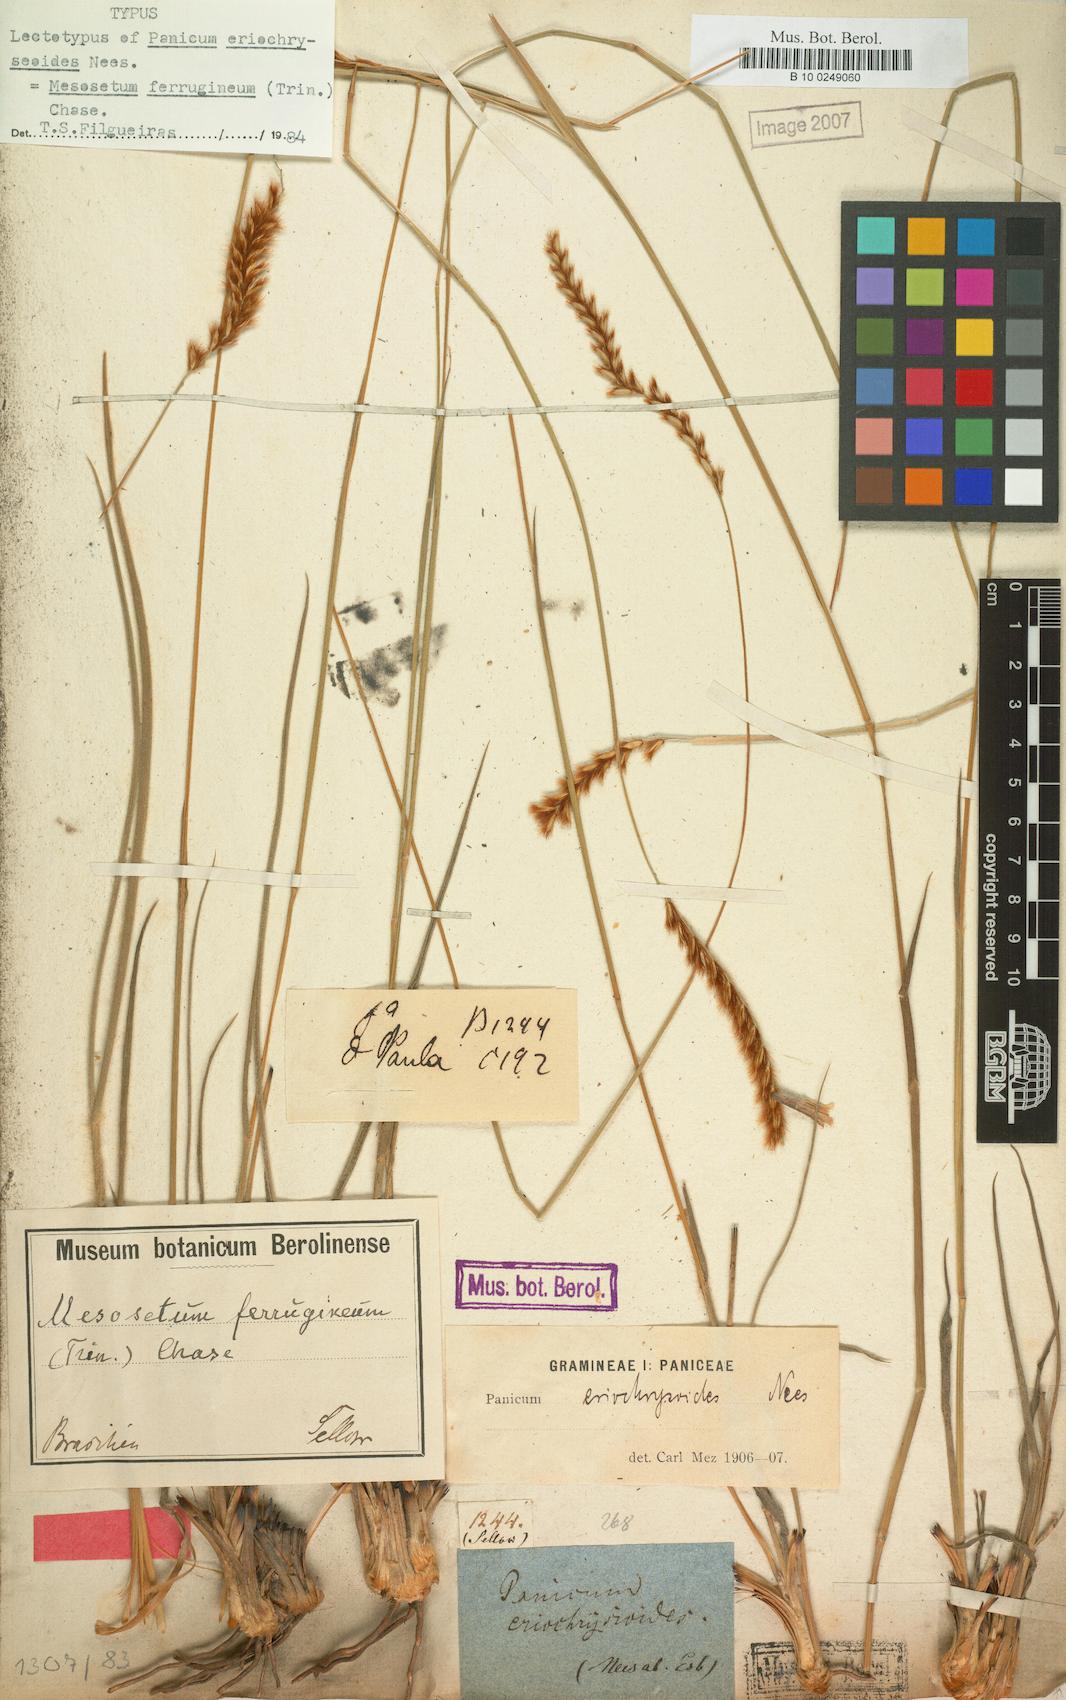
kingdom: Plantae
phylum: Tracheophyta
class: Liliopsida
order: Poales
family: Poaceae
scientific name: Poaceae
